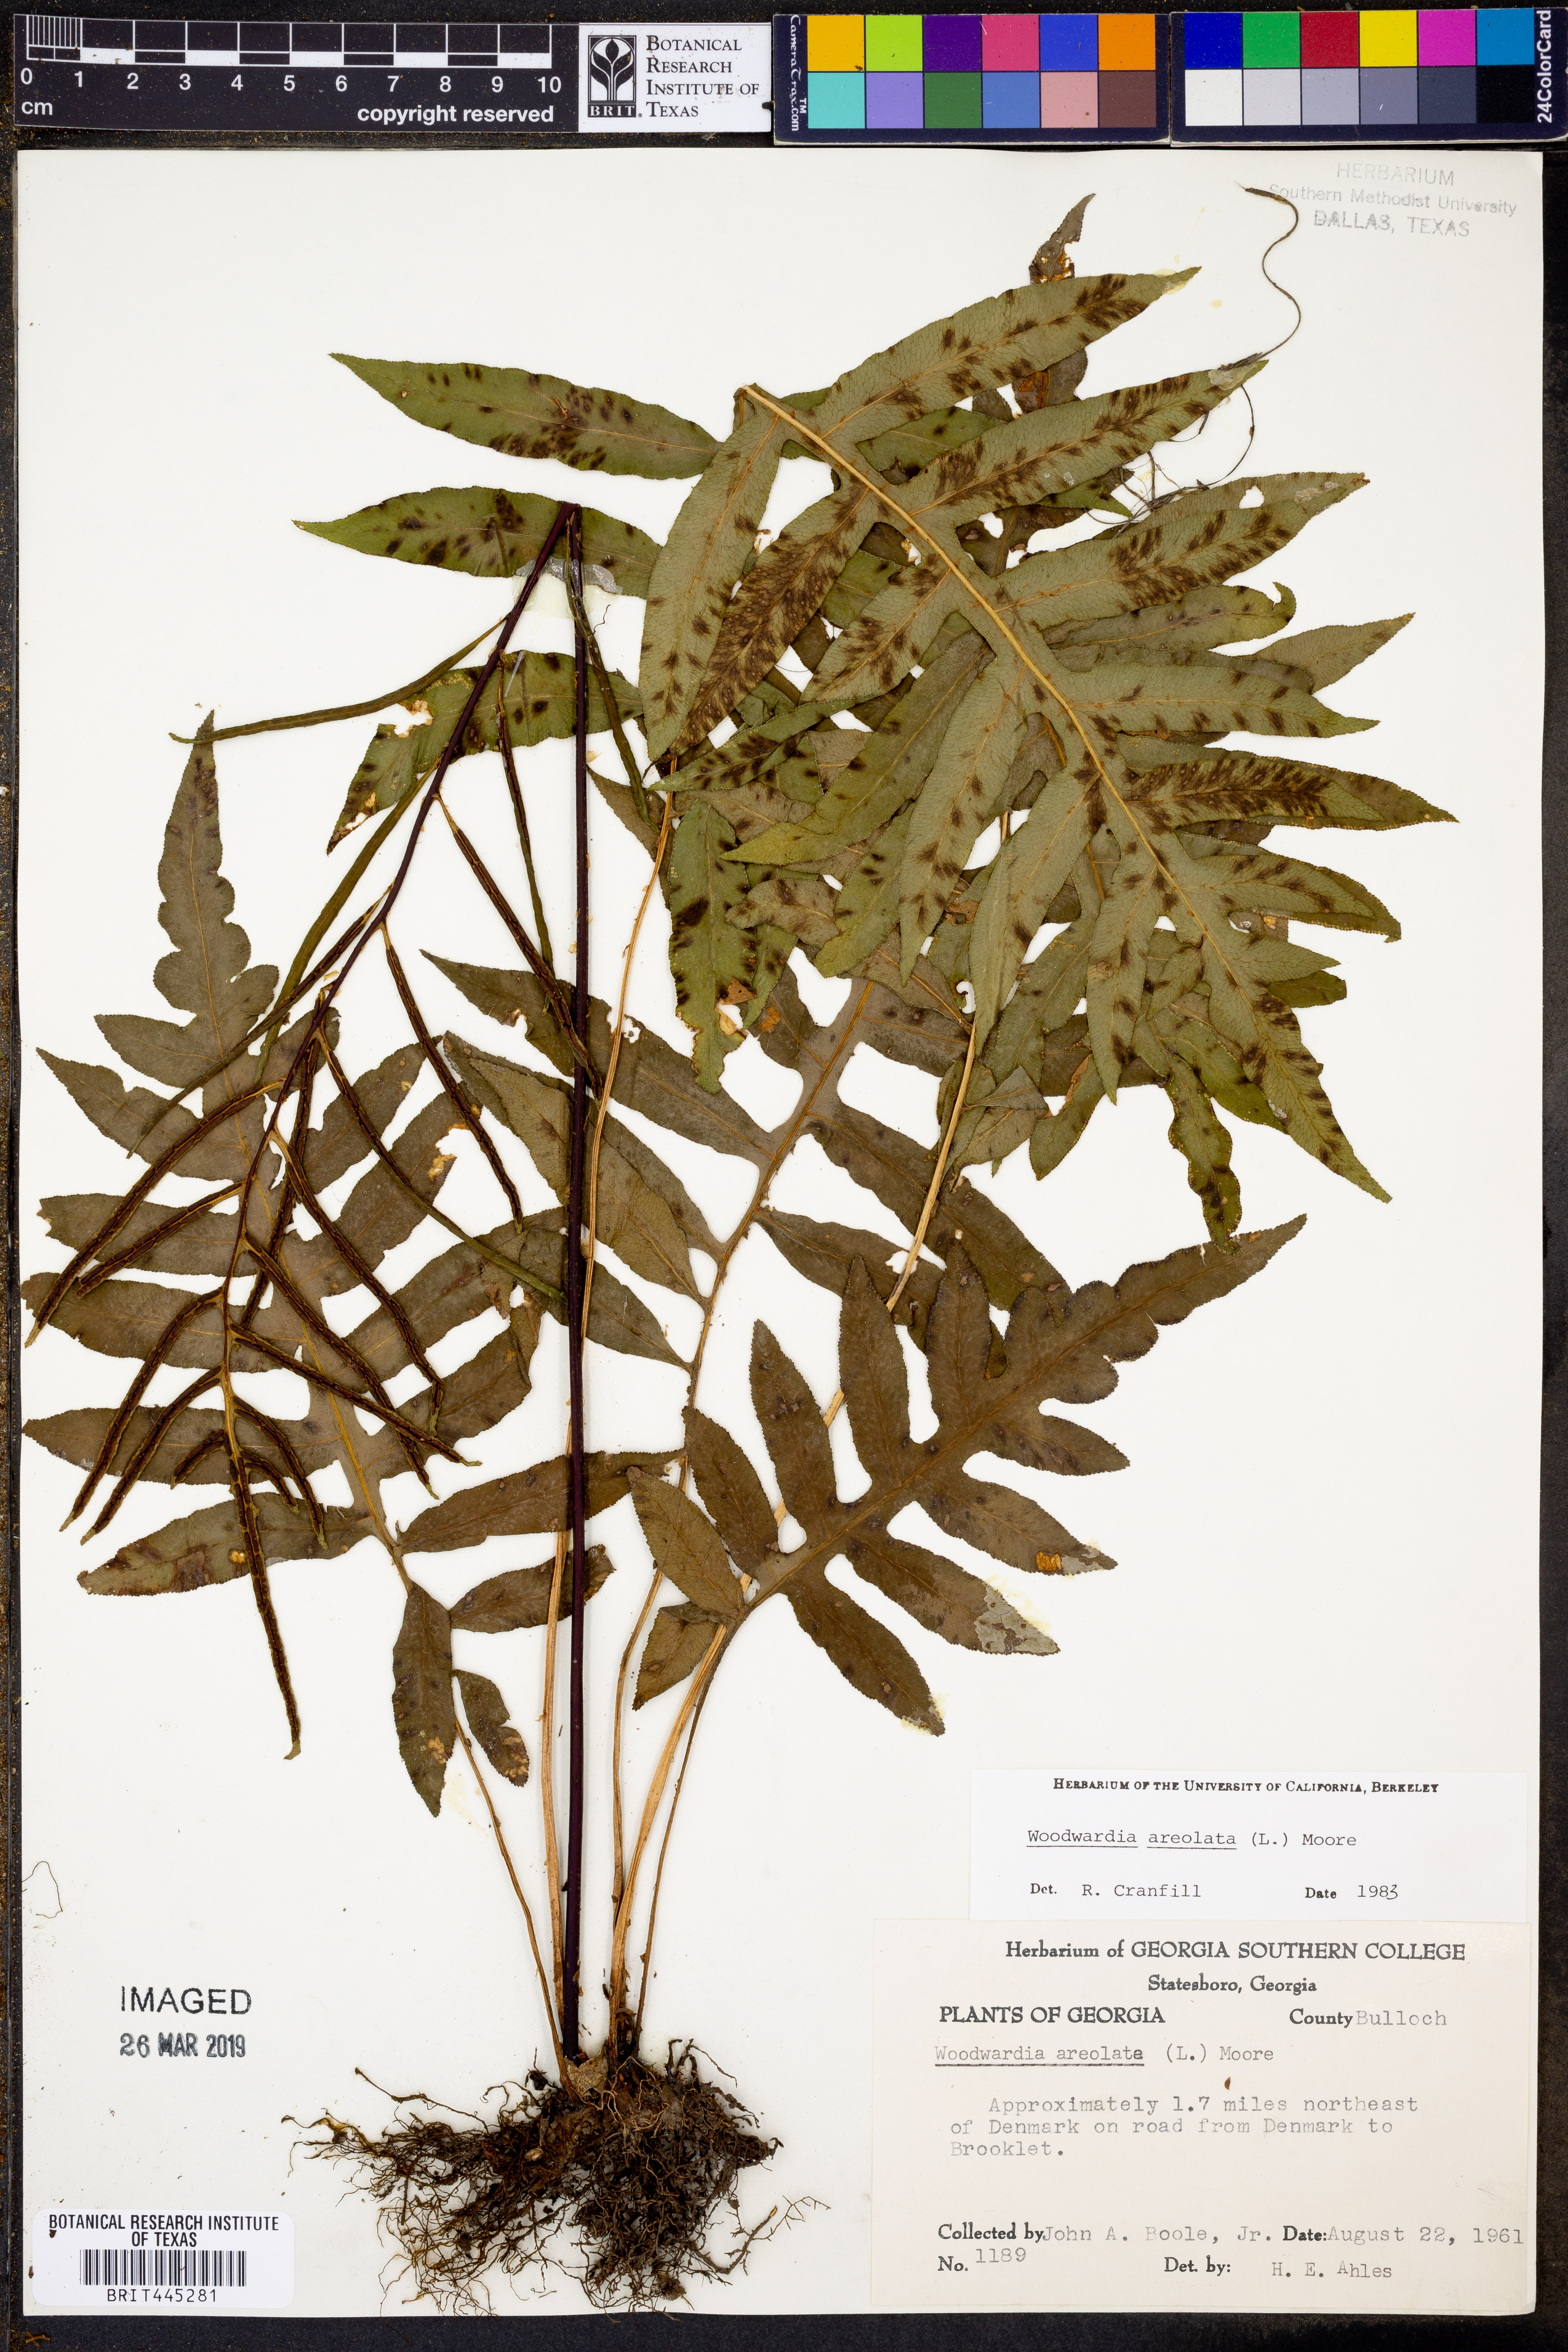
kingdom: Plantae
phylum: Tracheophyta
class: Polypodiopsida
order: Polypodiales
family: Blechnaceae
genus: Lorinseria
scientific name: Lorinseria areolata
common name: Dwarf chain fern
